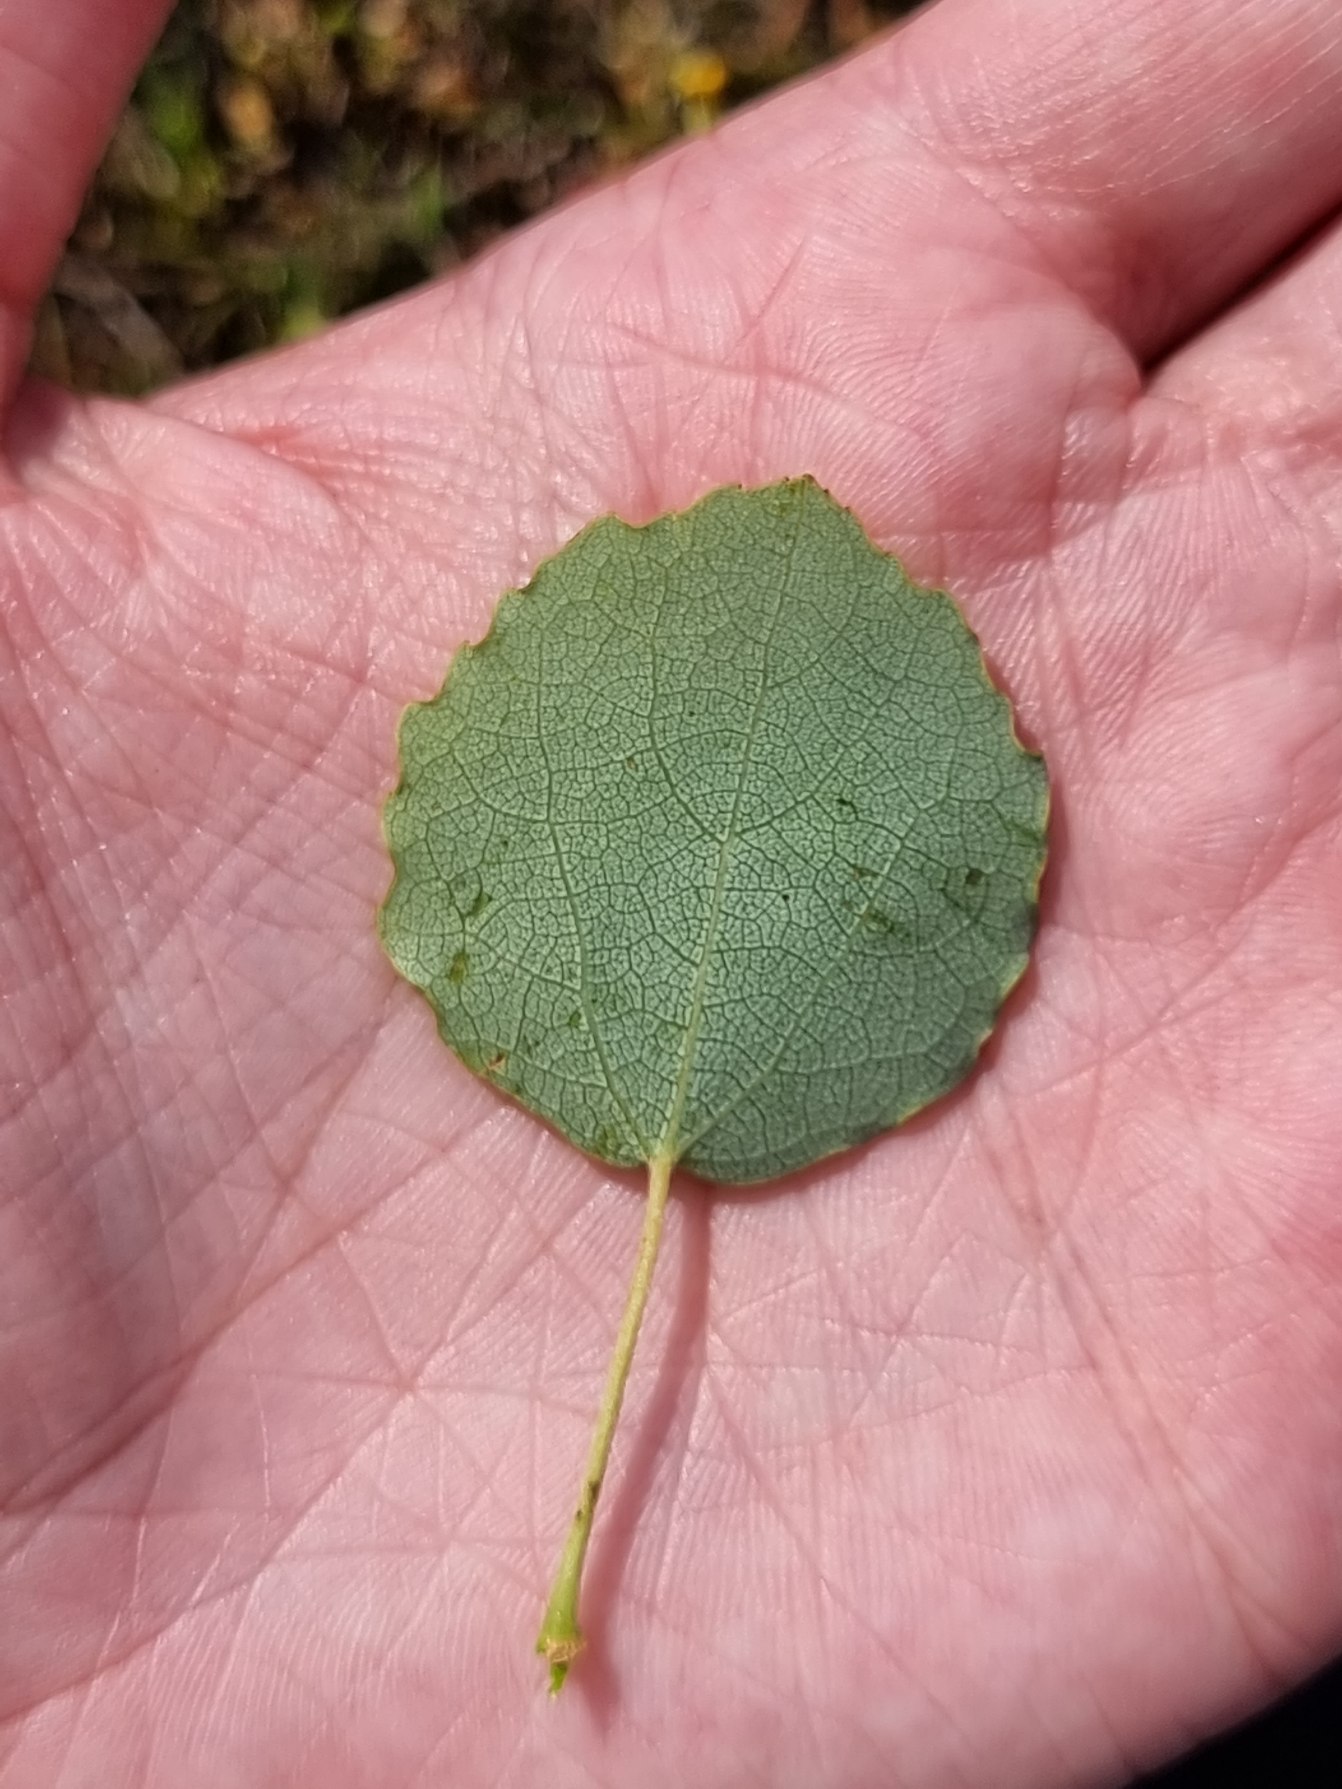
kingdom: Plantae
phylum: Tracheophyta
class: Magnoliopsida
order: Malpighiales
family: Salicaceae
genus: Populus
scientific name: Populus tremula
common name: Bævreasp
